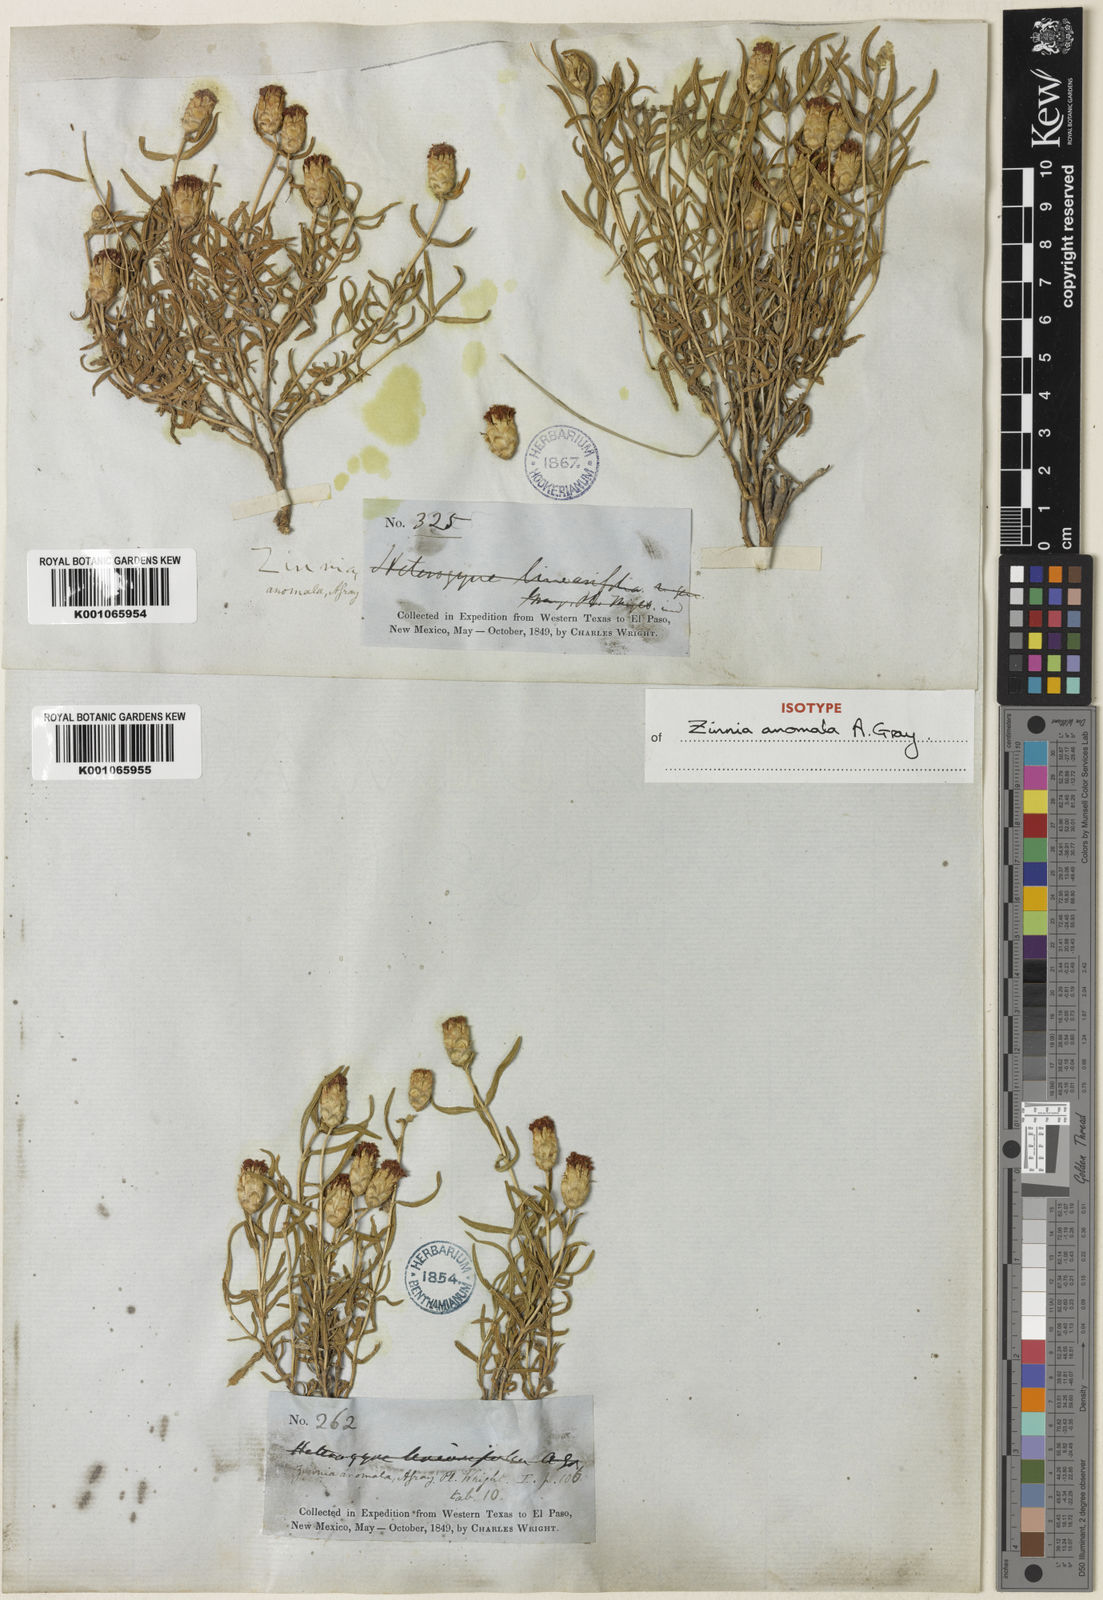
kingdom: Plantae
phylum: Tracheophyta
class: Magnoliopsida
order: Asterales
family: Asteraceae
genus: Zinnia
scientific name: Zinnia anomala
